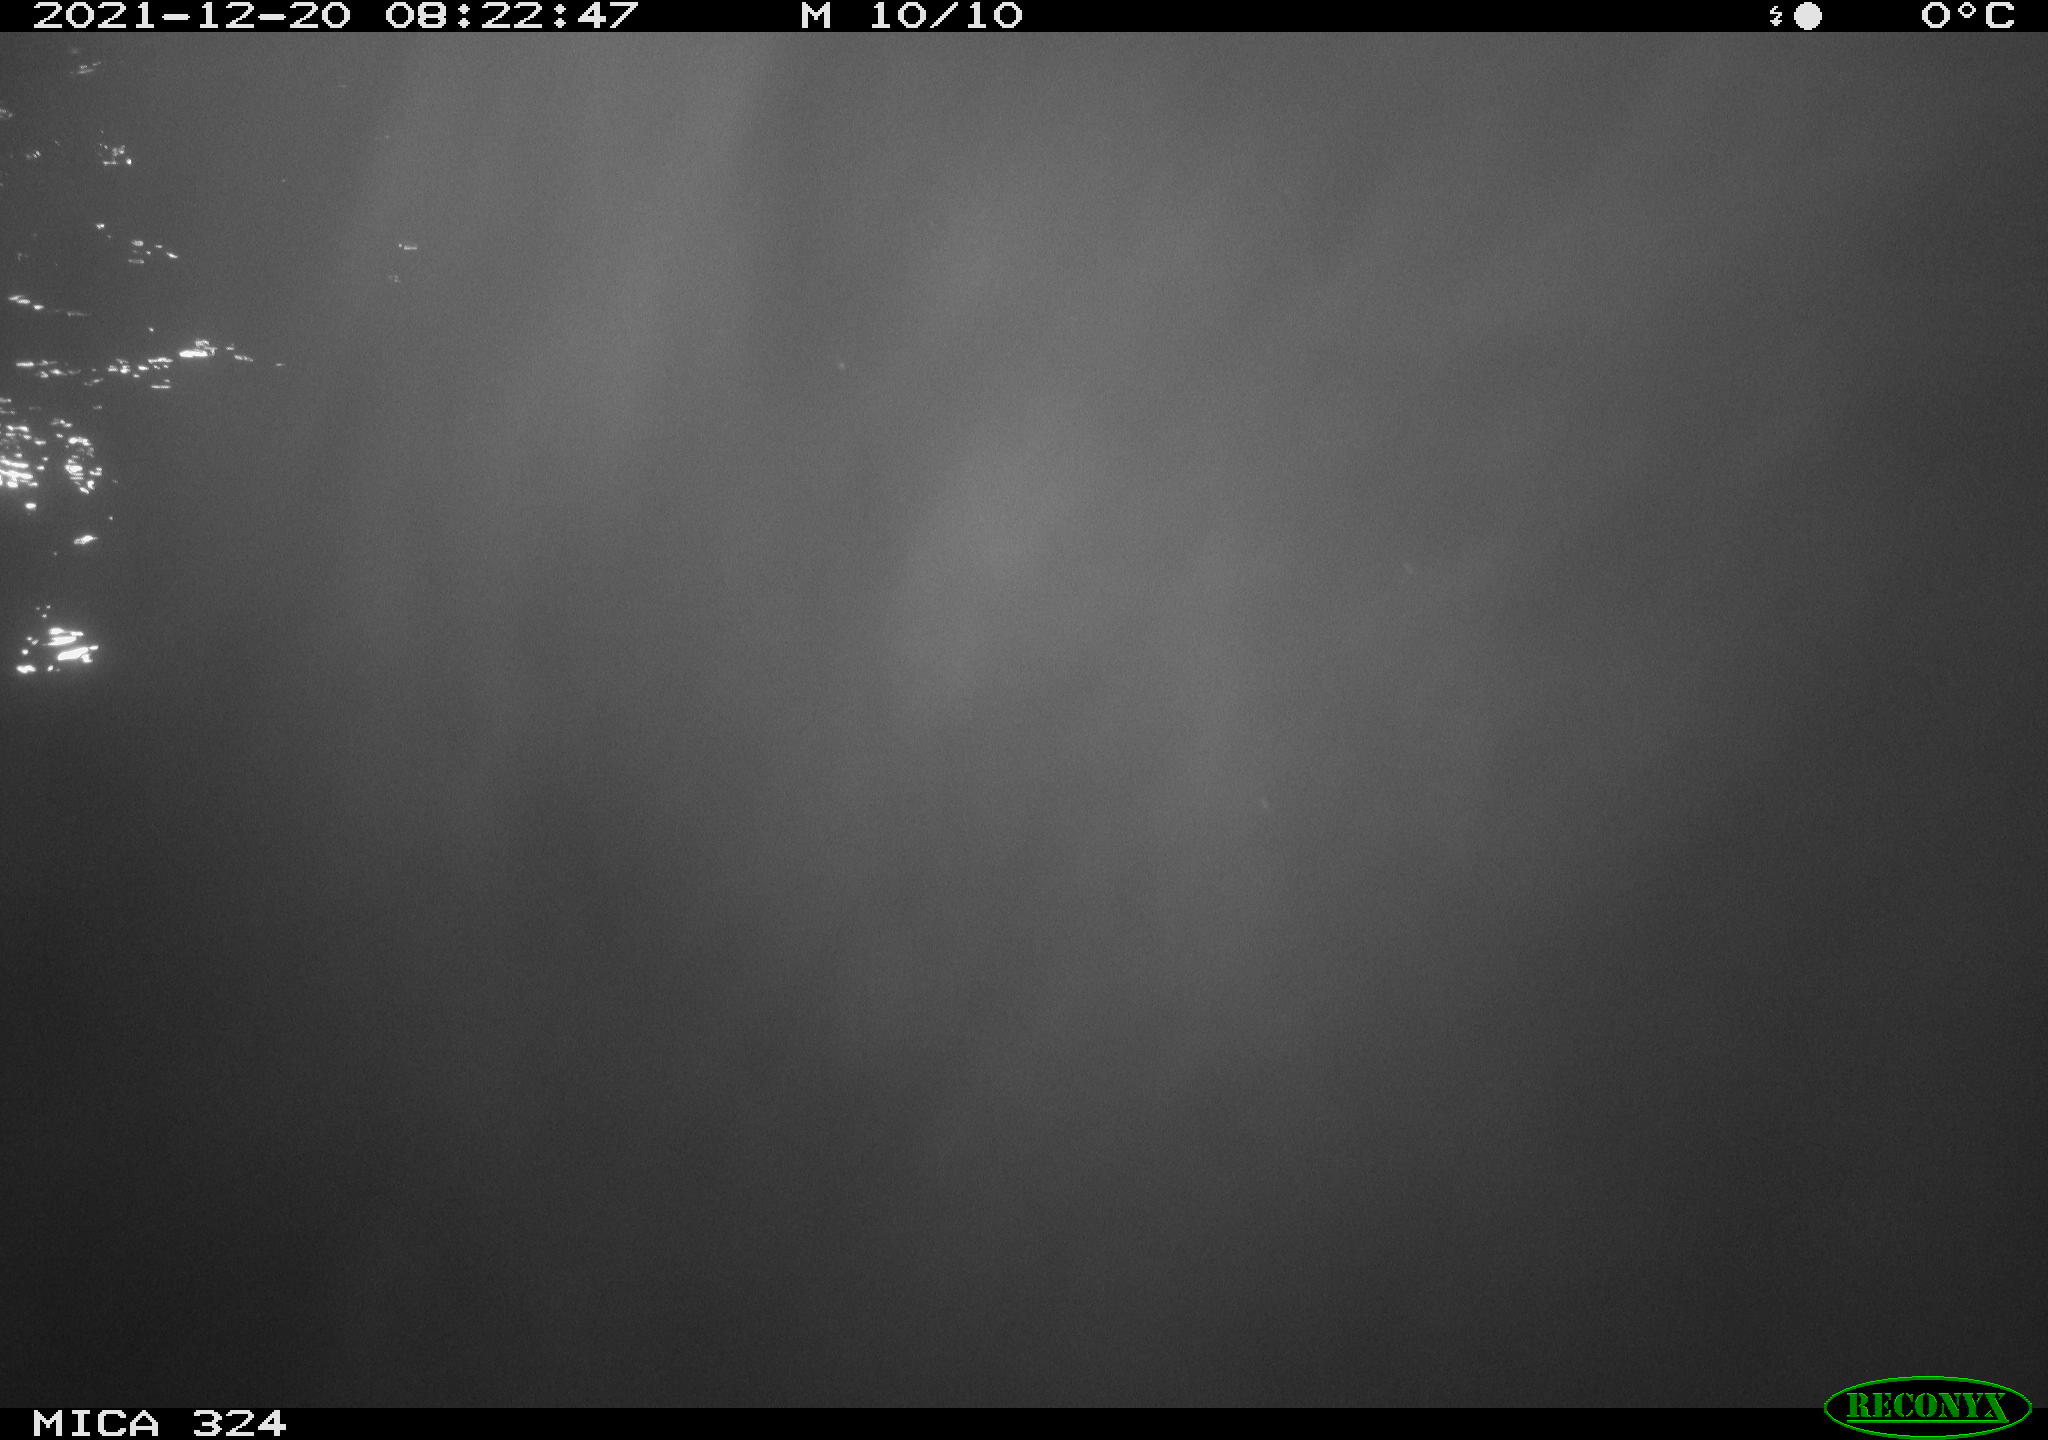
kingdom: Animalia
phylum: Chordata
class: Aves
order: Anseriformes
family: Anatidae
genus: Anas
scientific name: Anas platyrhynchos
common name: Mallard
